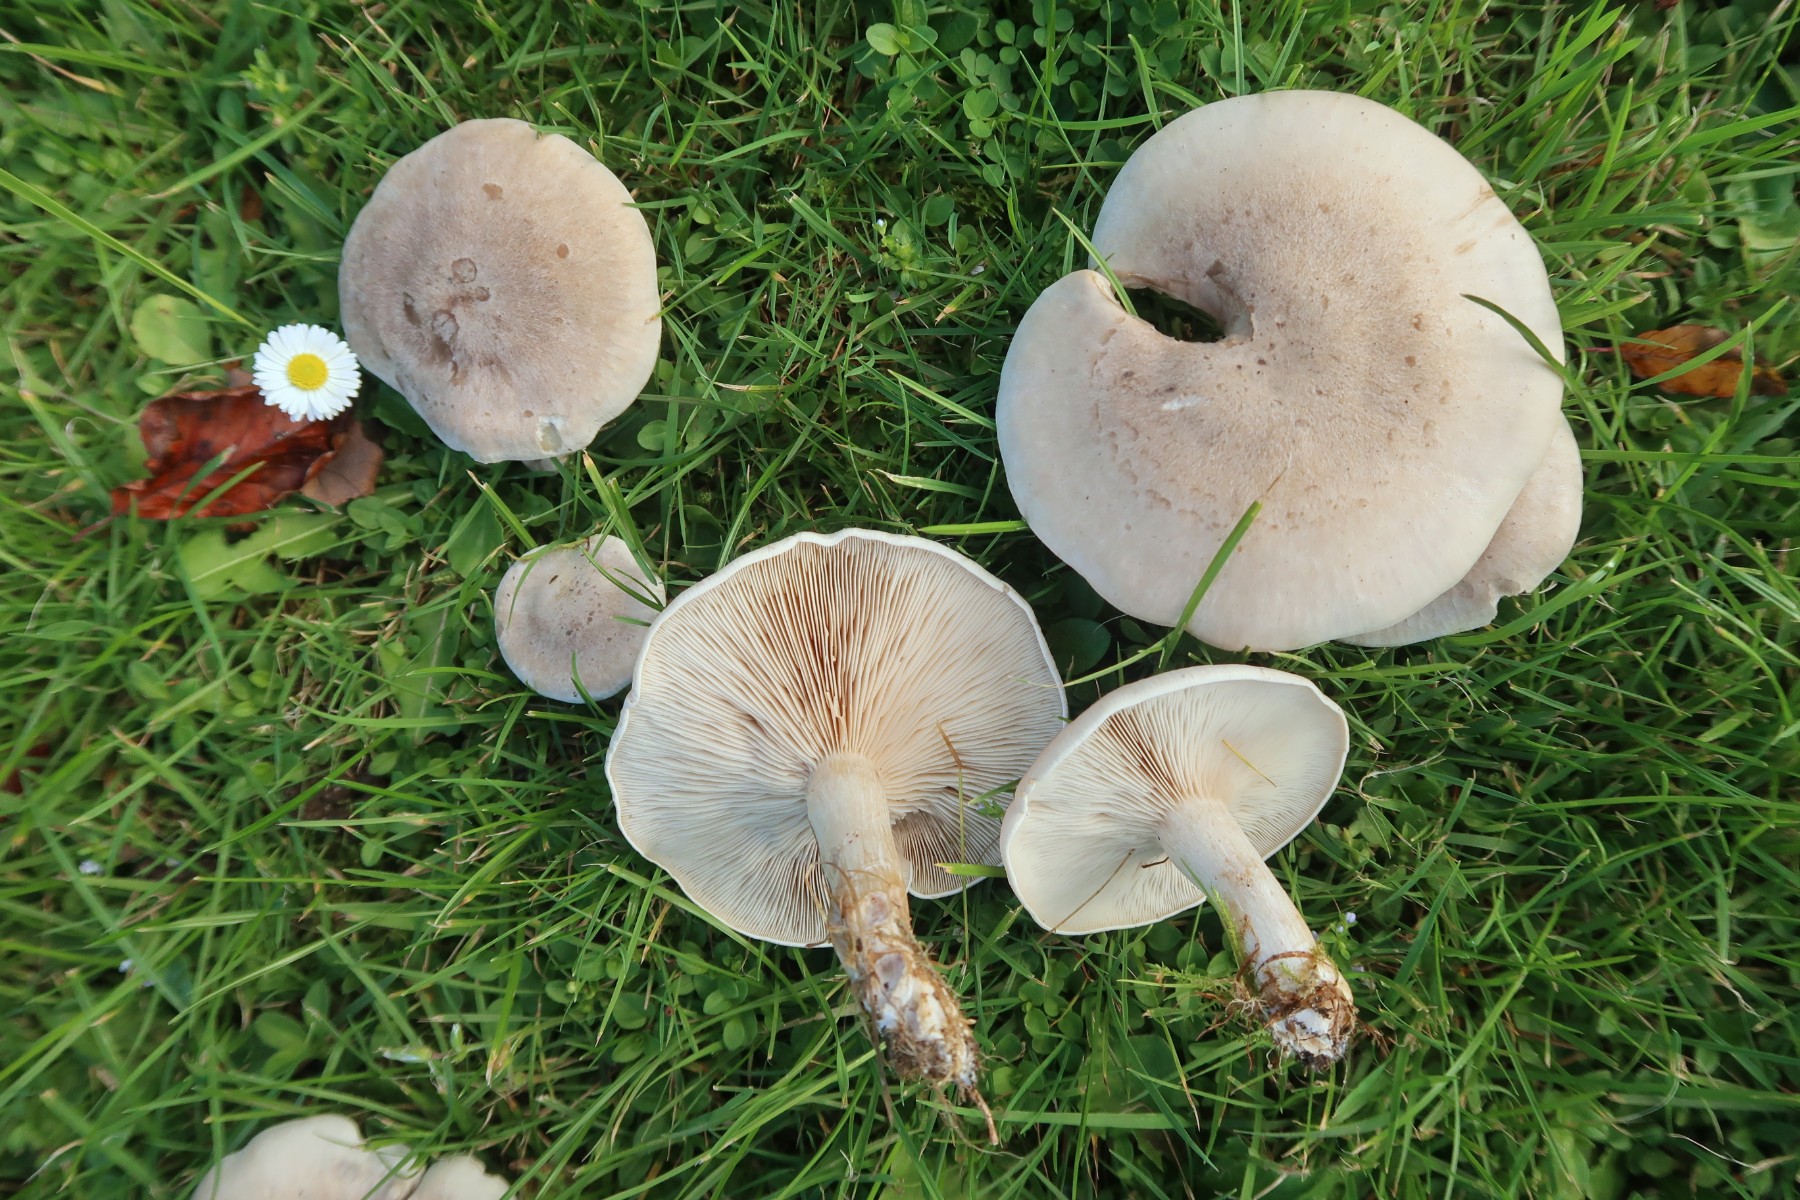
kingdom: Fungi
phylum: Basidiomycota
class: Agaricomycetes
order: Agaricales
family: Tricholomataceae
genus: Lepista
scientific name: Lepista panaeolus
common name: marmoreret hekseringshat
